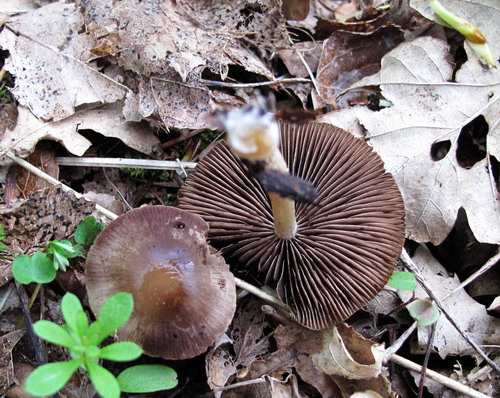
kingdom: Fungi
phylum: Basidiomycota
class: Agaricomycetes
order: Agaricales
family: Psathyrellaceae
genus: Psathyrella
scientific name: Psathyrella spadiceogrisea
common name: gråbrun mørkhat
